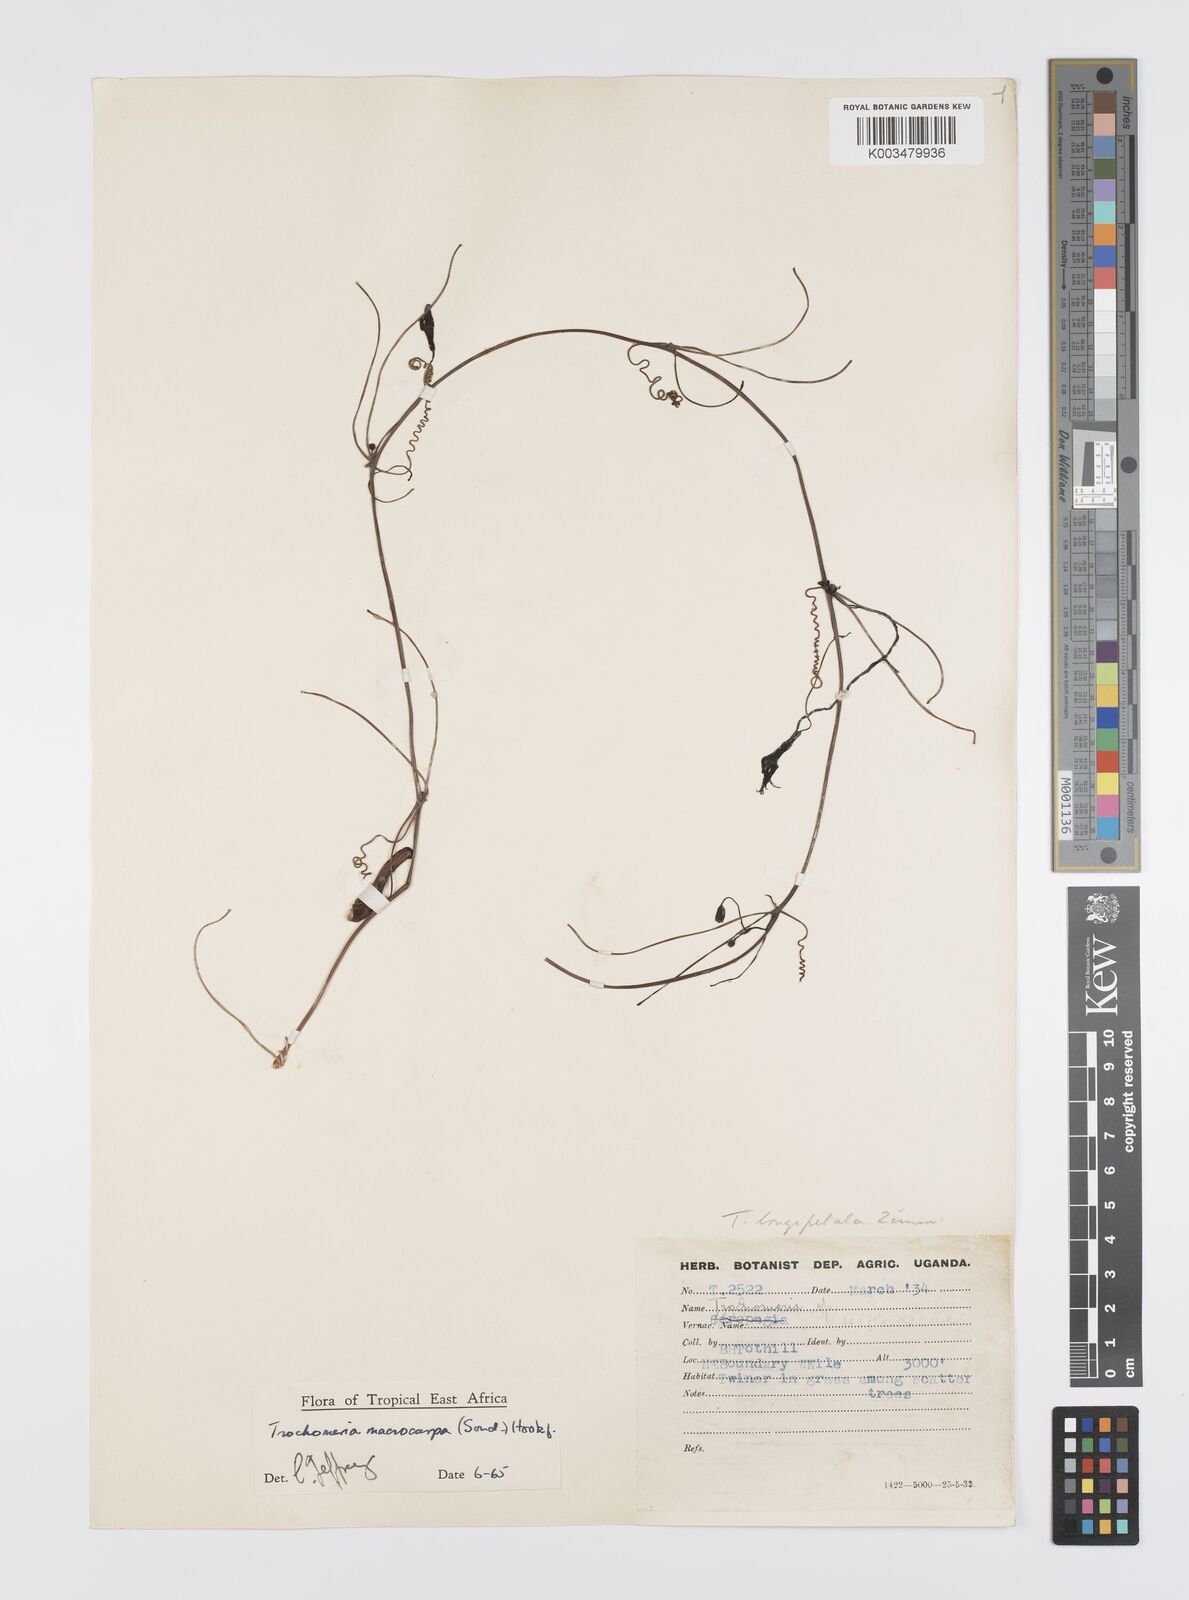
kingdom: Plantae
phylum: Tracheophyta
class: Magnoliopsida
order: Cucurbitales
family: Cucurbitaceae
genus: Trochomeria
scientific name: Trochomeria macrocarpa
